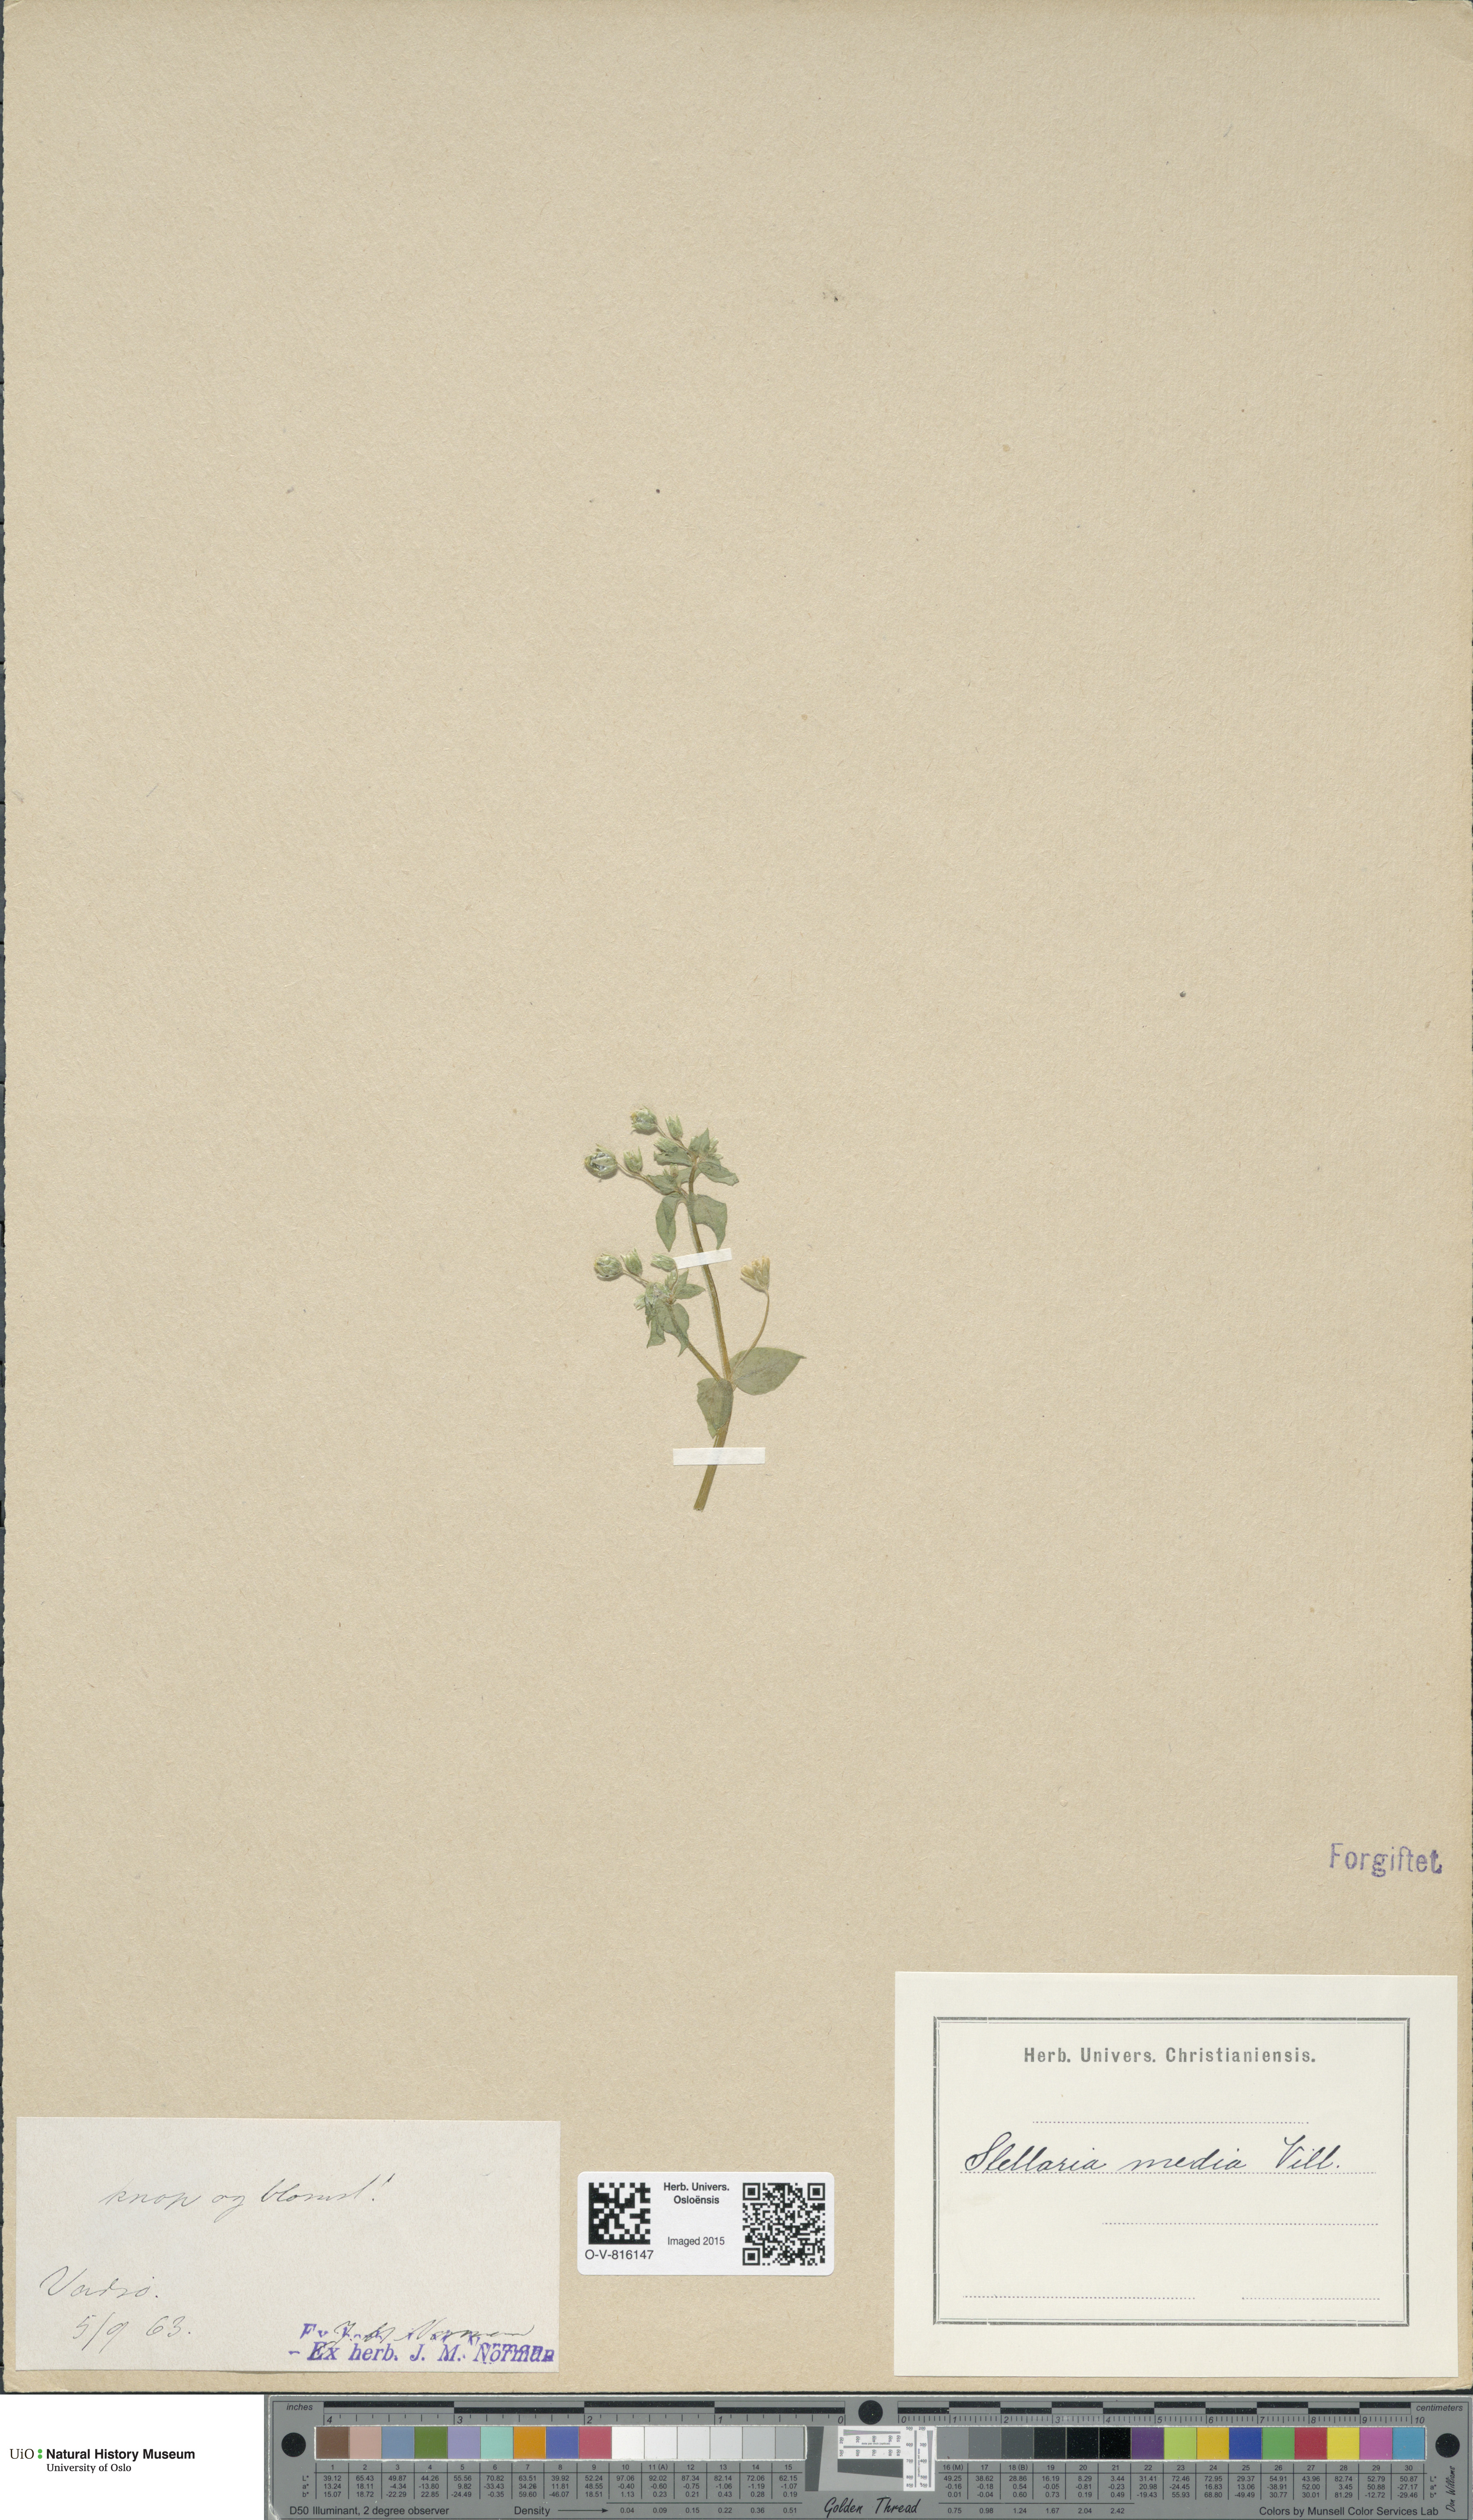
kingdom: Plantae
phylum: Tracheophyta
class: Magnoliopsida
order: Caryophyllales
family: Caryophyllaceae
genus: Stellaria
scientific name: Stellaria media
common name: Common chickweed
